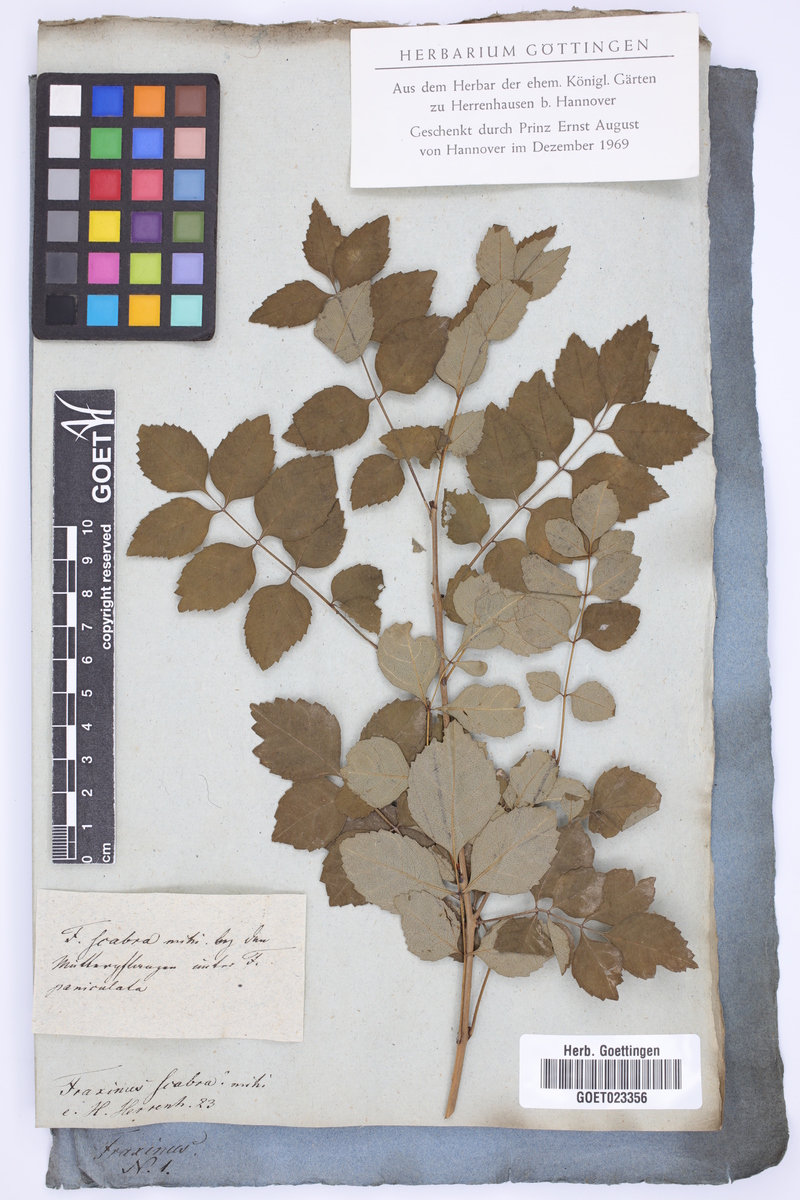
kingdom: Plantae
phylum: Tracheophyta
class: Magnoliopsida
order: Lamiales
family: Oleaceae
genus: Fraxinus
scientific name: Fraxinus
